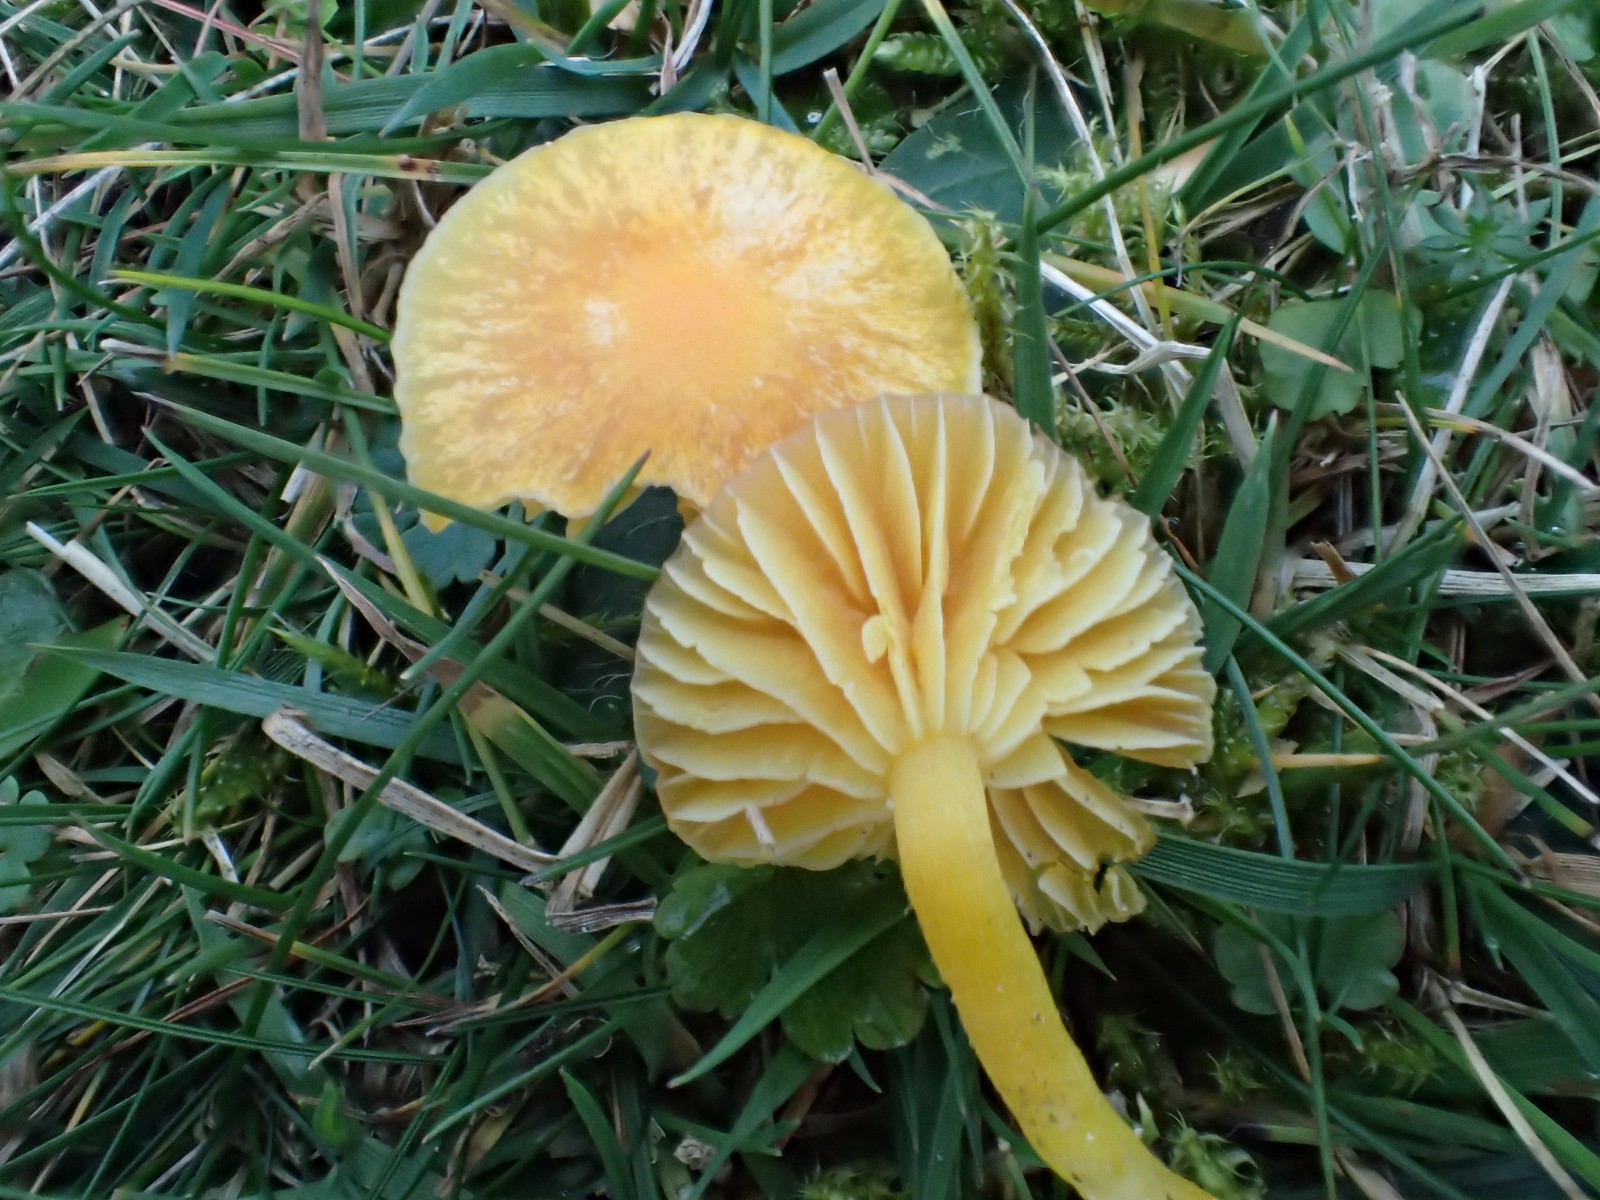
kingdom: Fungi
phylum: Basidiomycota
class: Agaricomycetes
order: Agaricales
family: Hygrophoraceae
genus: Hygrocybe
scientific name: Hygrocybe ceracea
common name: voksgul vokshat
